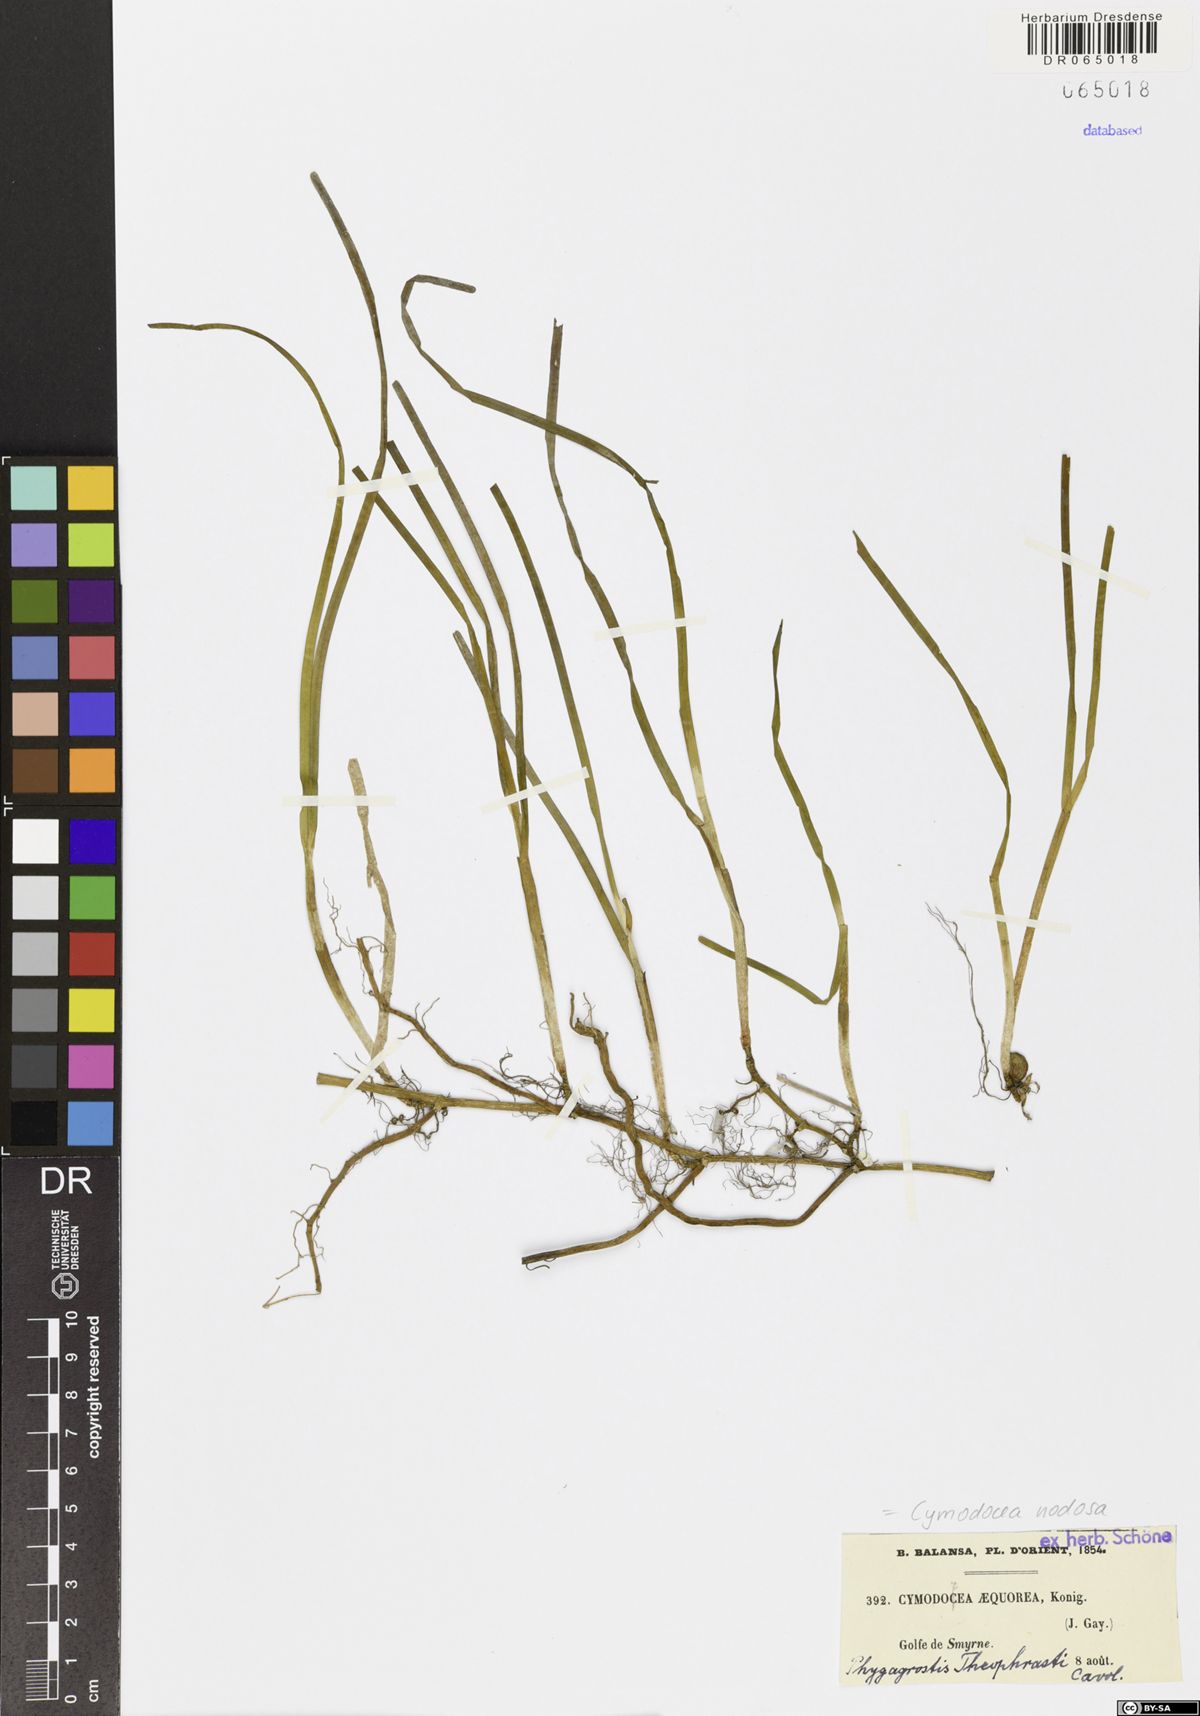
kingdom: Plantae
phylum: Tracheophyta
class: Liliopsida
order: Alismatales
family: Cymodoceaceae
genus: Cymodocea
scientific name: Cymodocea nodosa
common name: Slender seagrass
